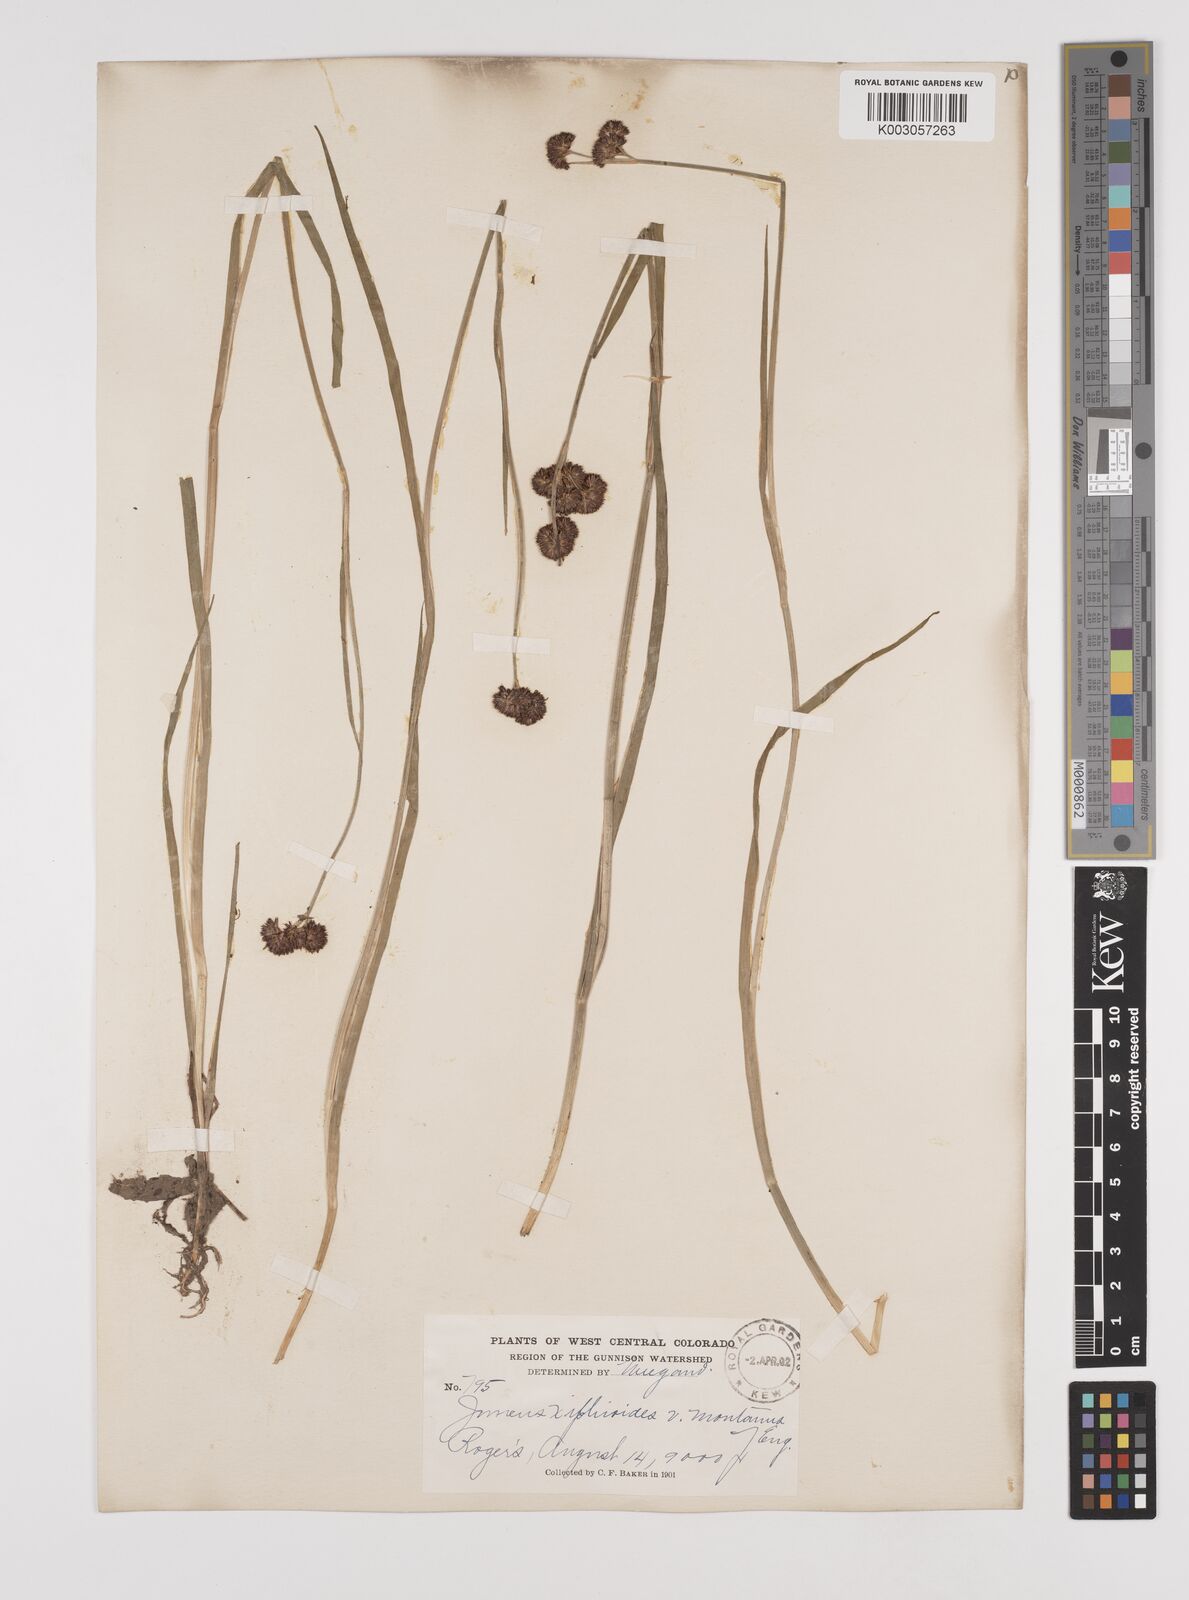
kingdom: Plantae
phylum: Tracheophyta
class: Liliopsida
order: Poales
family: Juncaceae
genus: Juncus
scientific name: Juncus xiphioides
